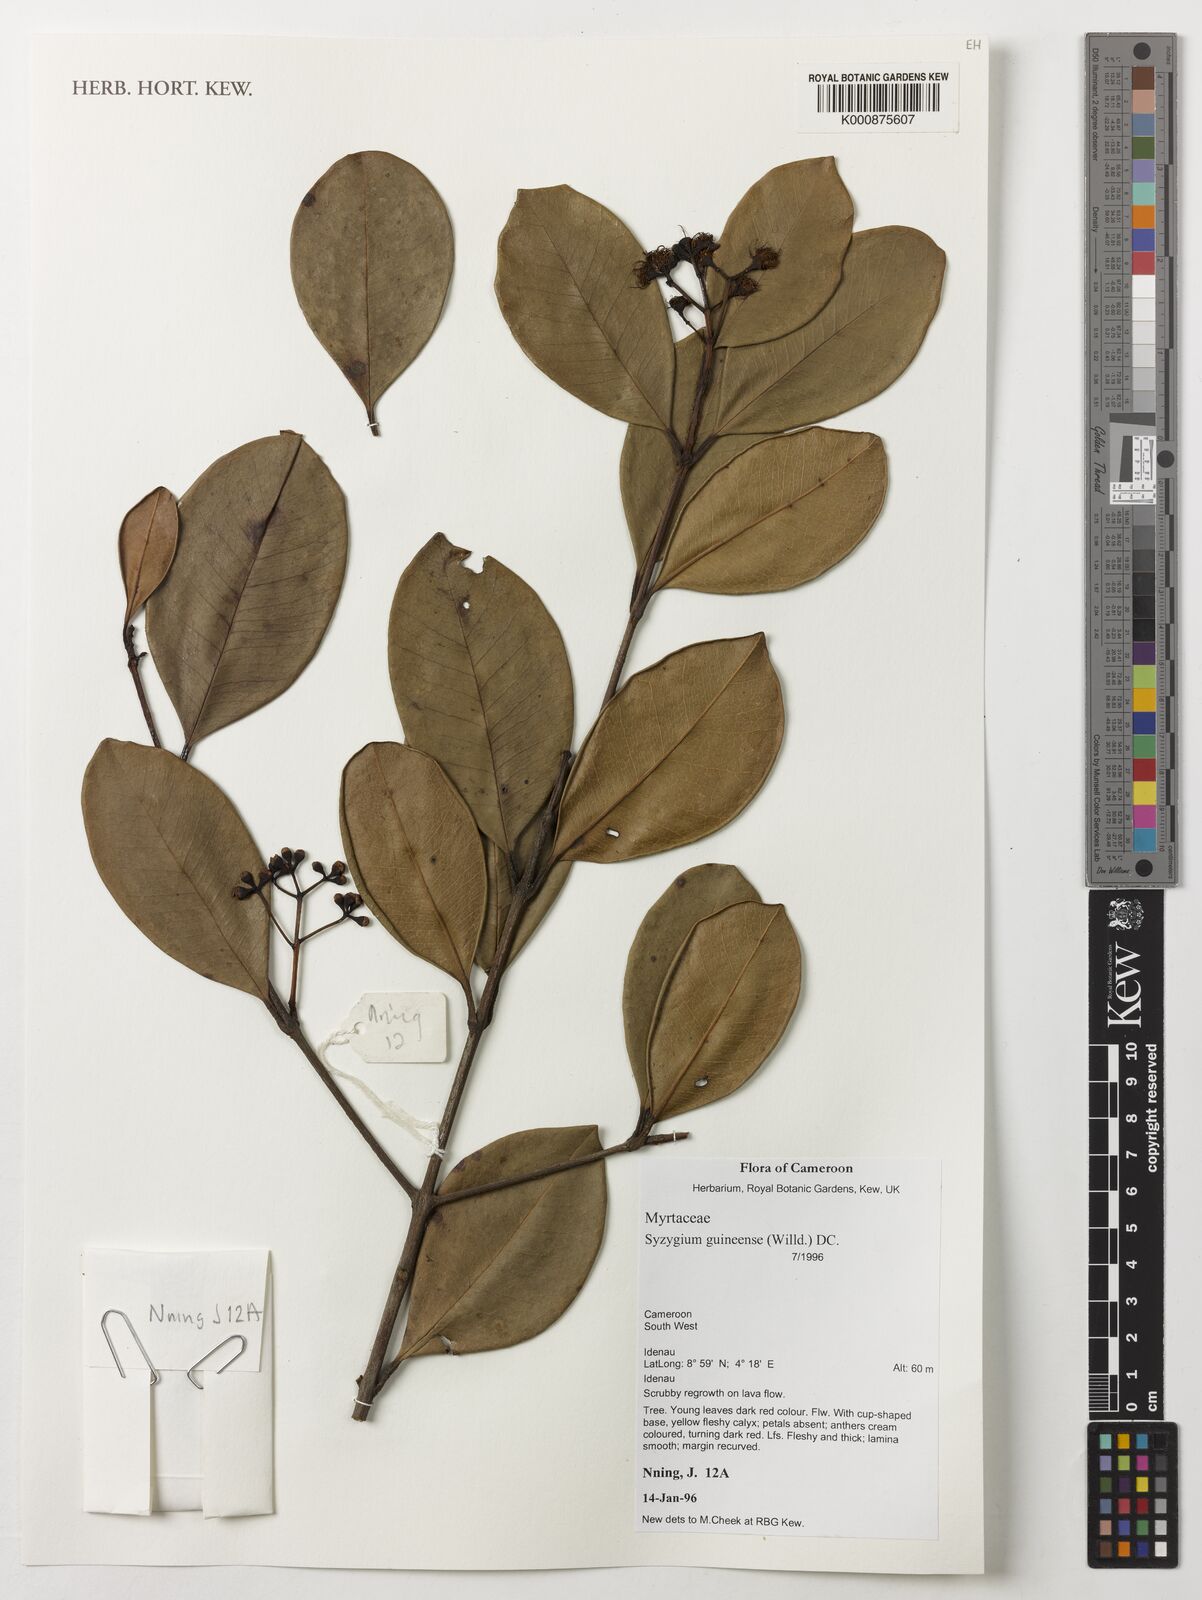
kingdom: Plantae
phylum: Tracheophyta
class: Magnoliopsida
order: Myrtales
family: Myrtaceae
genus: Syzygium
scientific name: Syzygium guineense
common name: Water-pear
